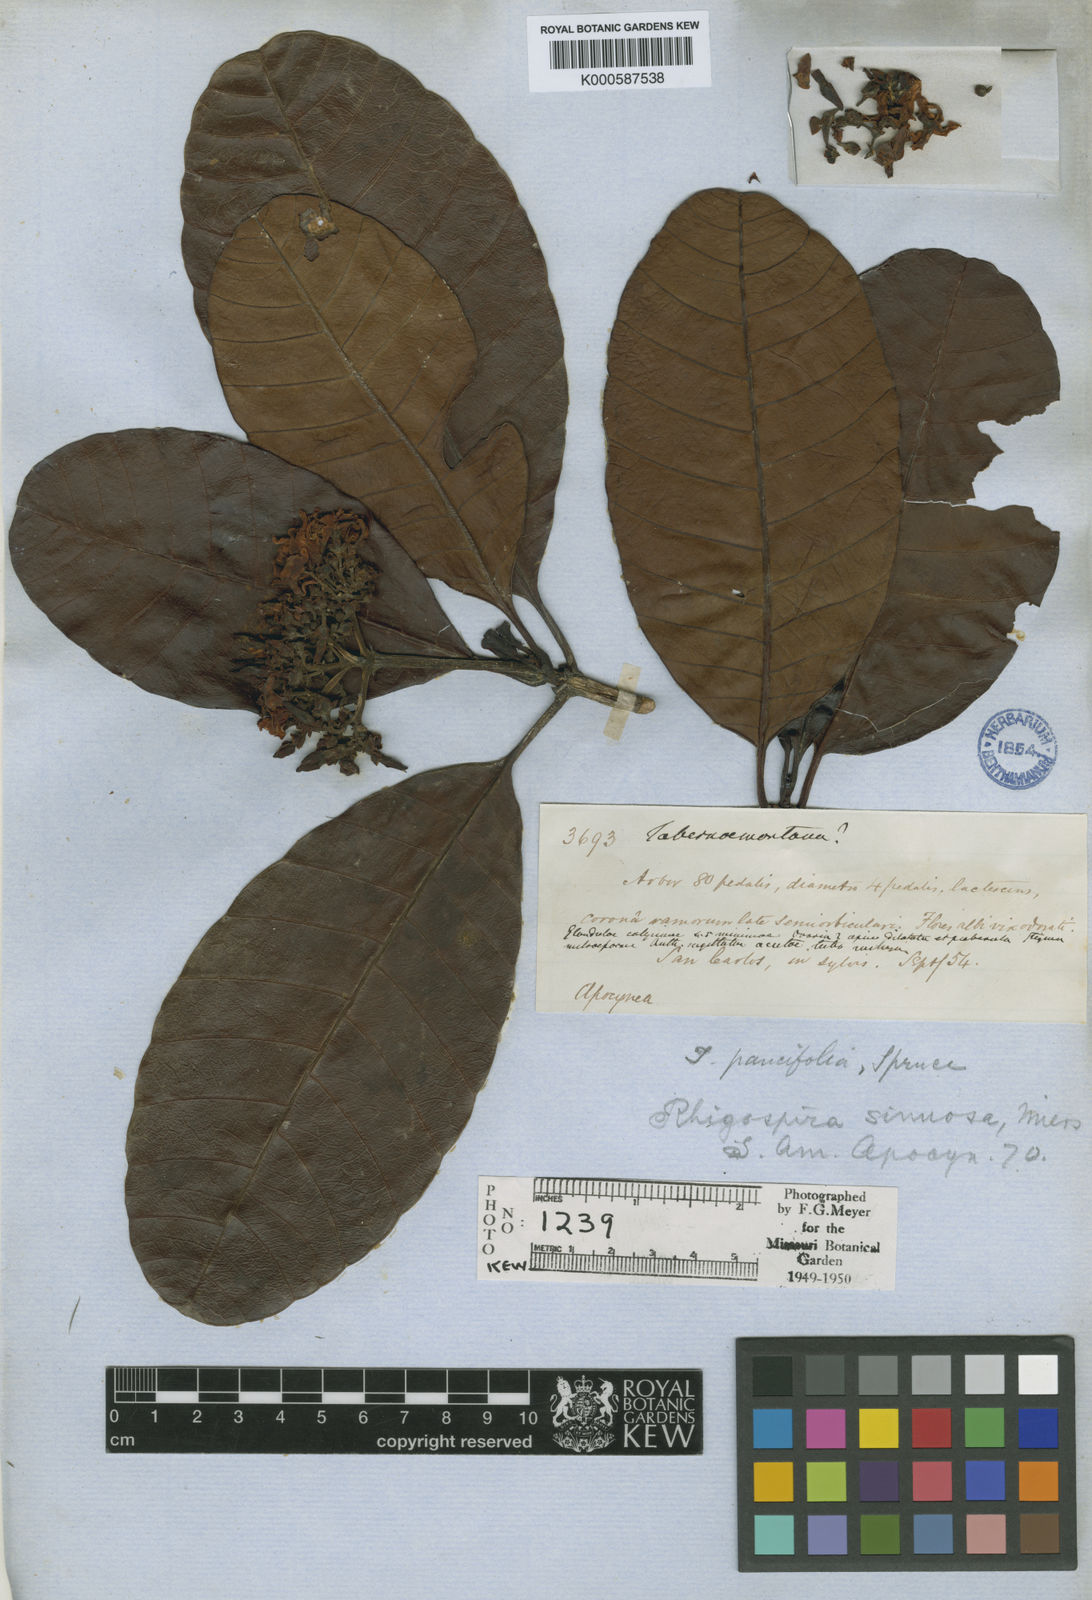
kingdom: Plantae
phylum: Tracheophyta
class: Magnoliopsida
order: Gentianales
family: Apocynaceae
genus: Macoubea
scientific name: Macoubea guianensis
